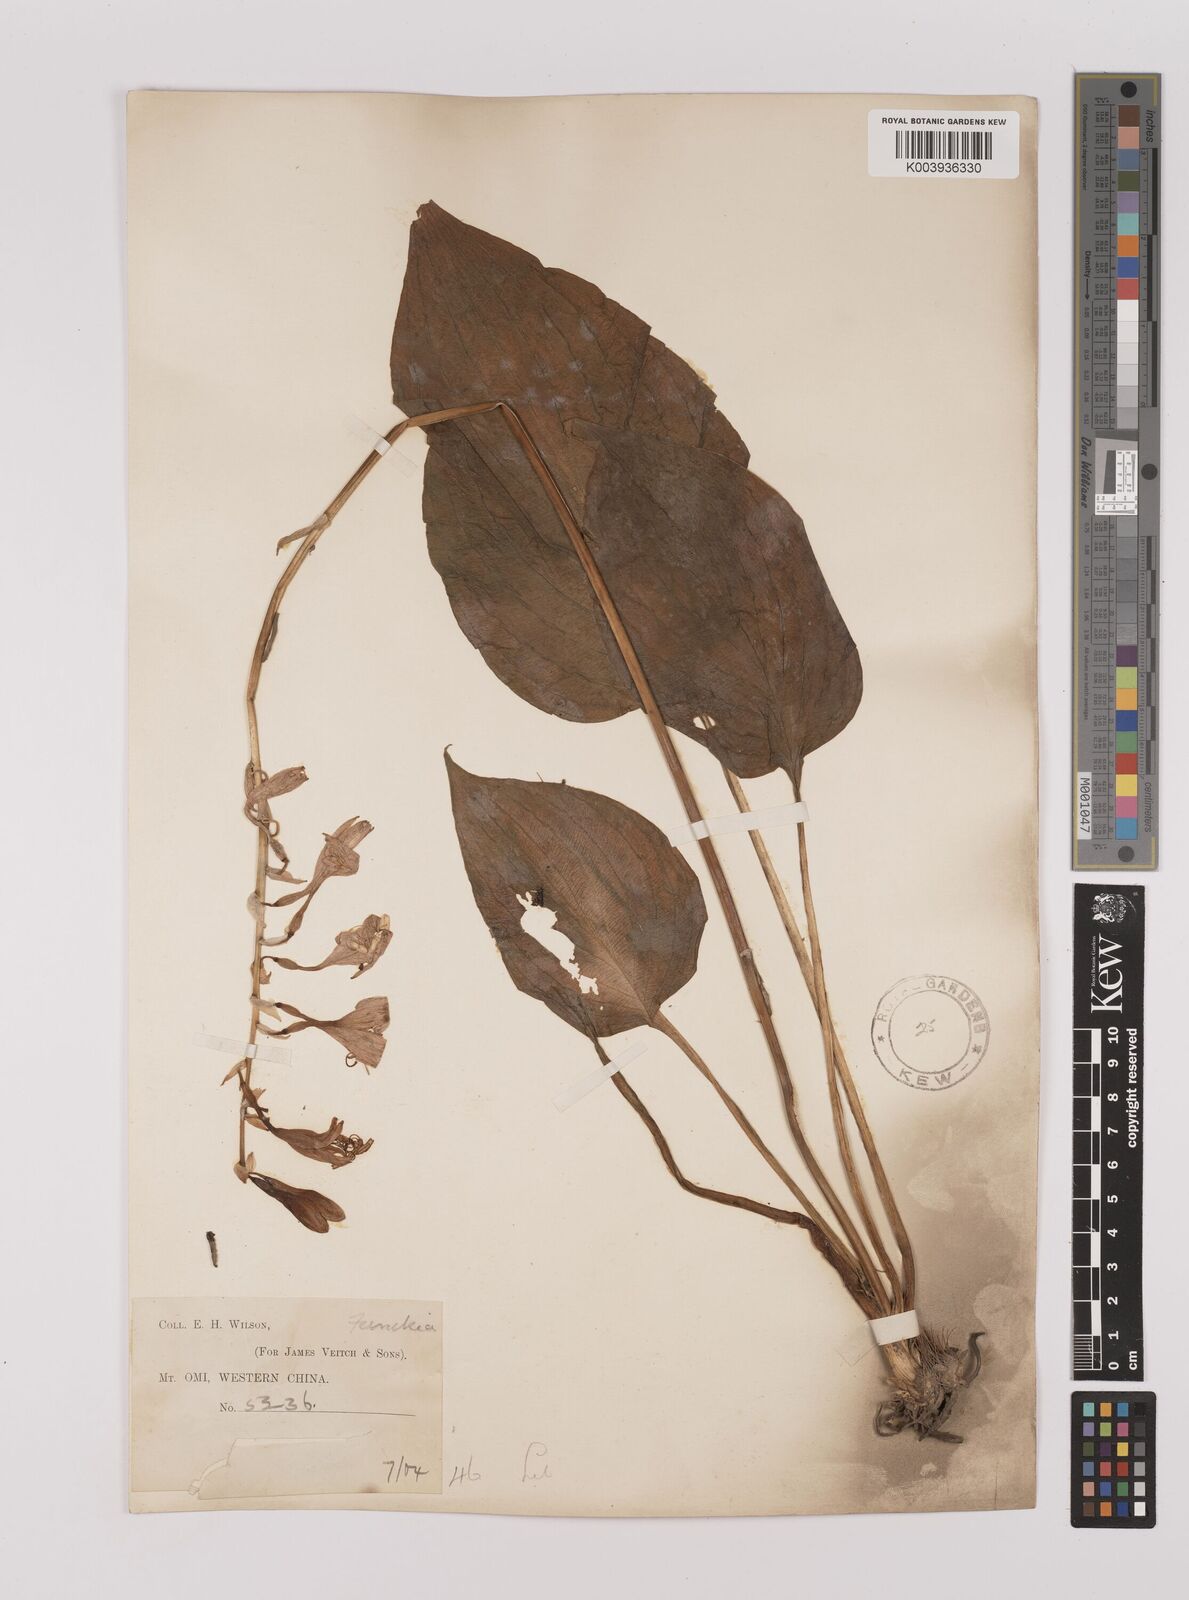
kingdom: Plantae
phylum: Tracheophyta
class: Liliopsida
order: Asparagales
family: Asparagaceae
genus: Hosta
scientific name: Hosta ventricosa
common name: Blue plantain-lily
